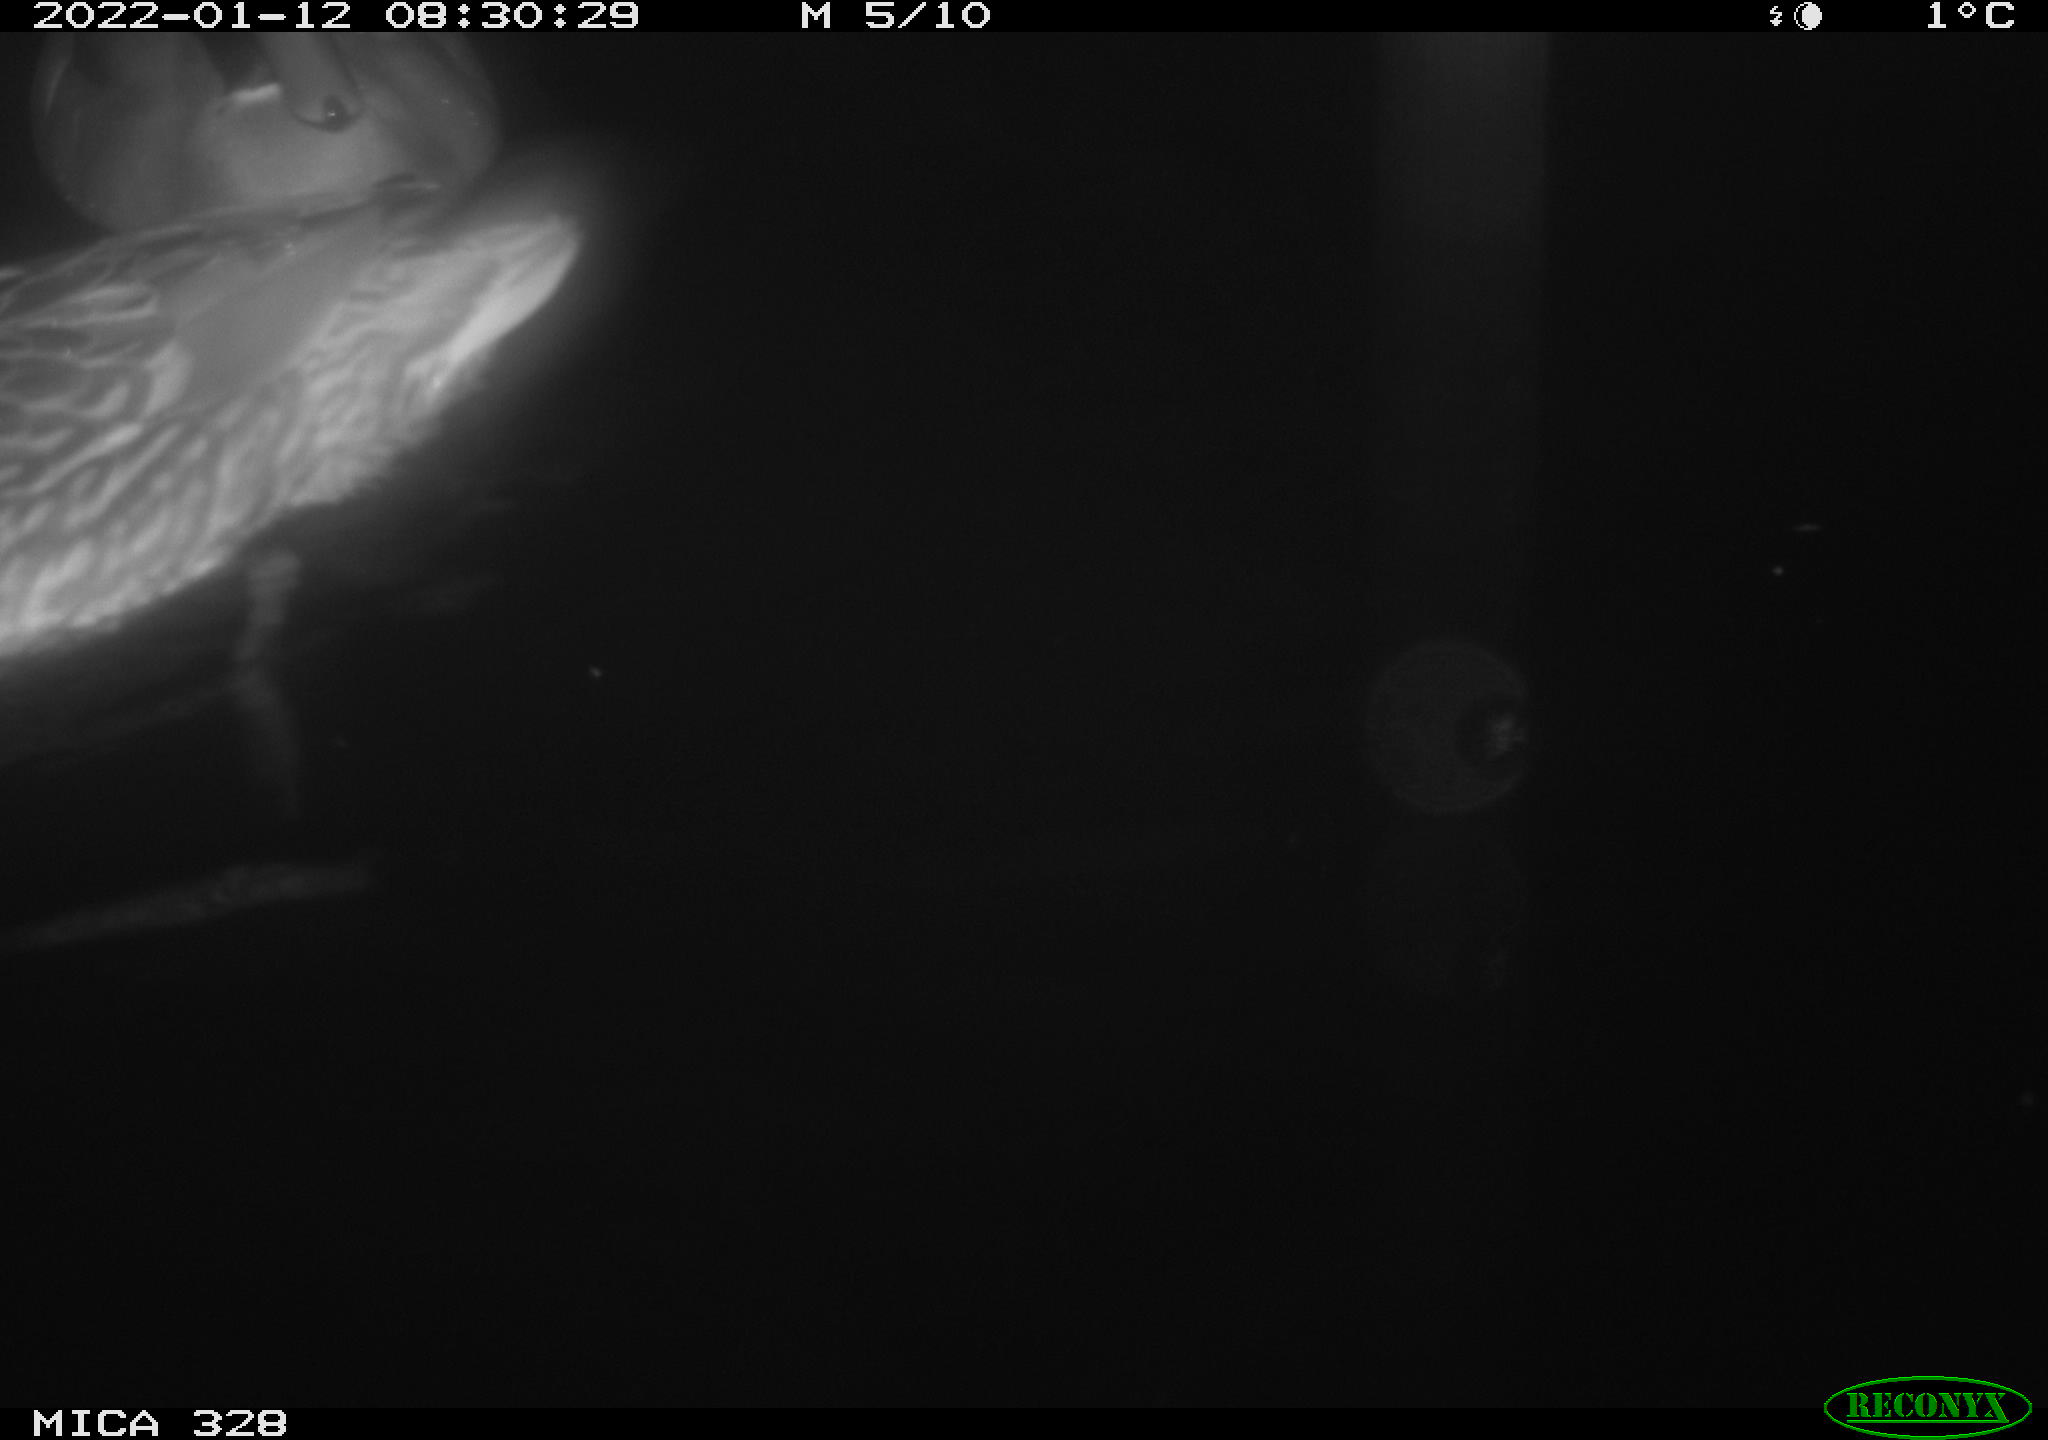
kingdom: Animalia
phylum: Chordata
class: Aves
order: Anseriformes
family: Anatidae
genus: Anas
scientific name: Anas platyrhynchos
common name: Mallard
